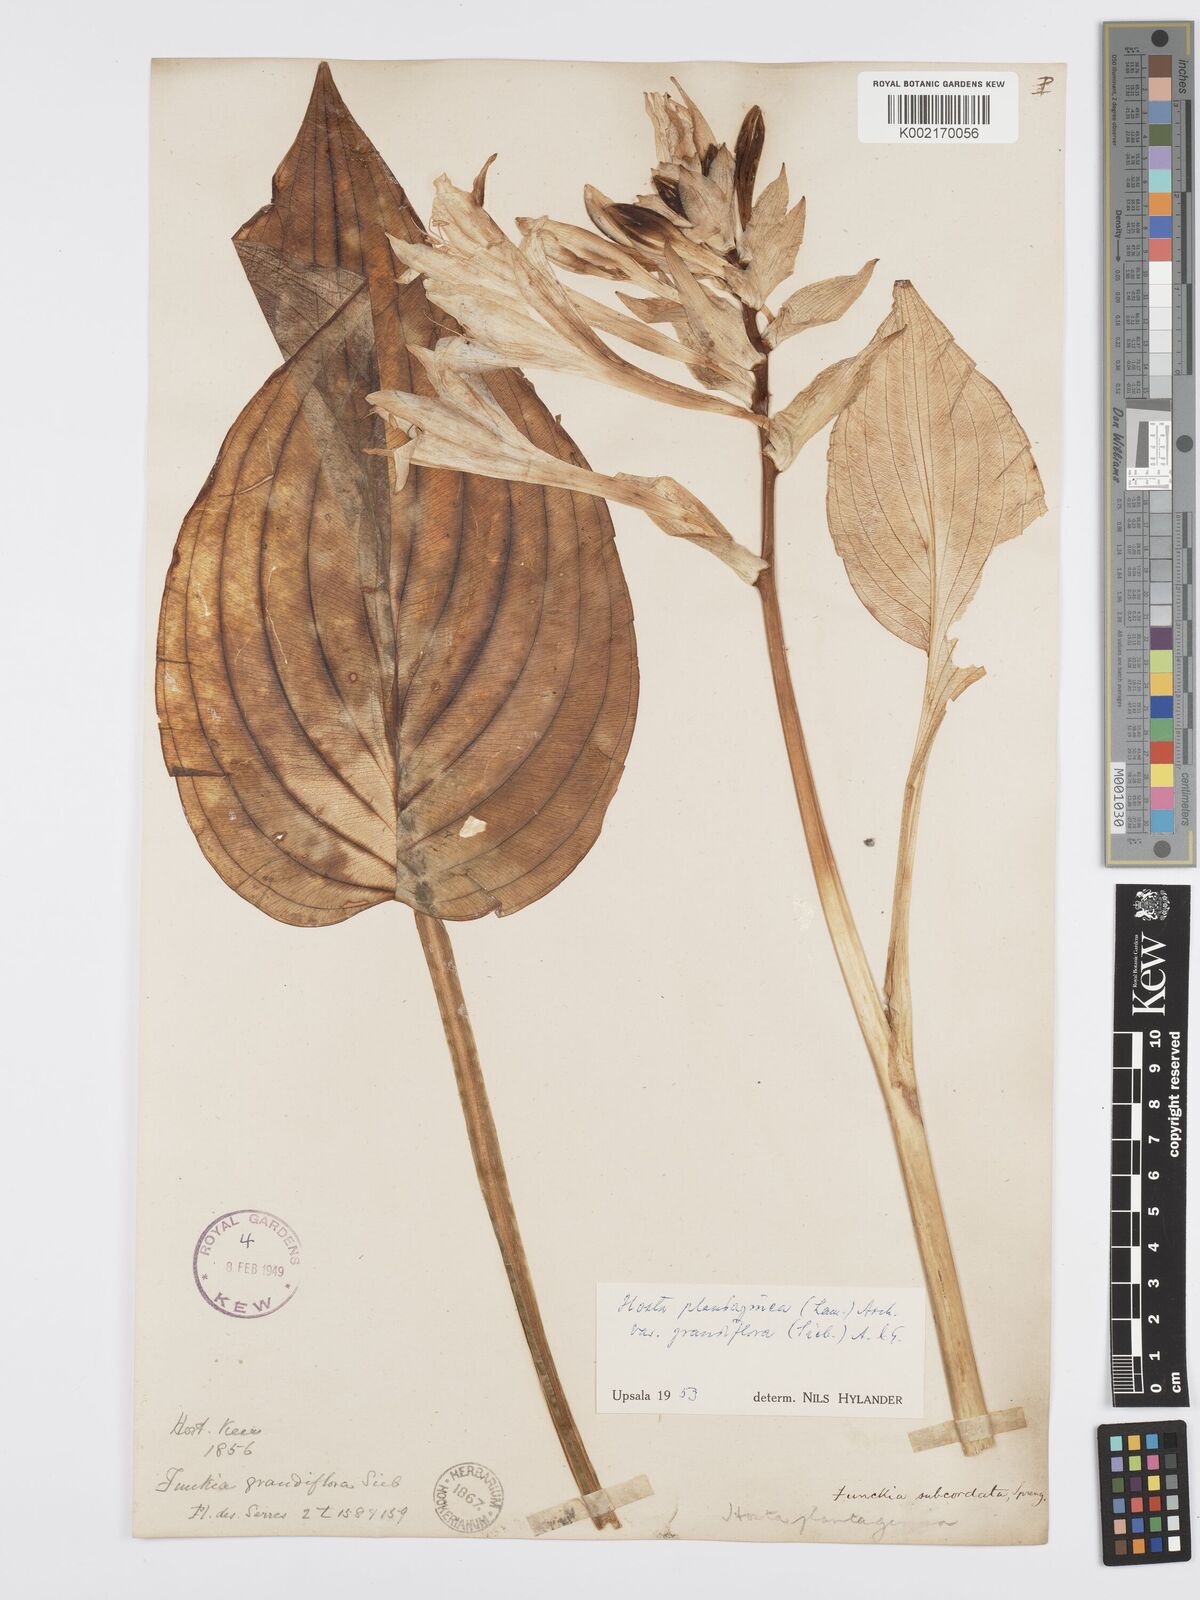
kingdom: Plantae
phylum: Tracheophyta
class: Liliopsida
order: Asparagales
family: Asparagaceae
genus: Hosta
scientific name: Hosta plantaginea
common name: August-lily
